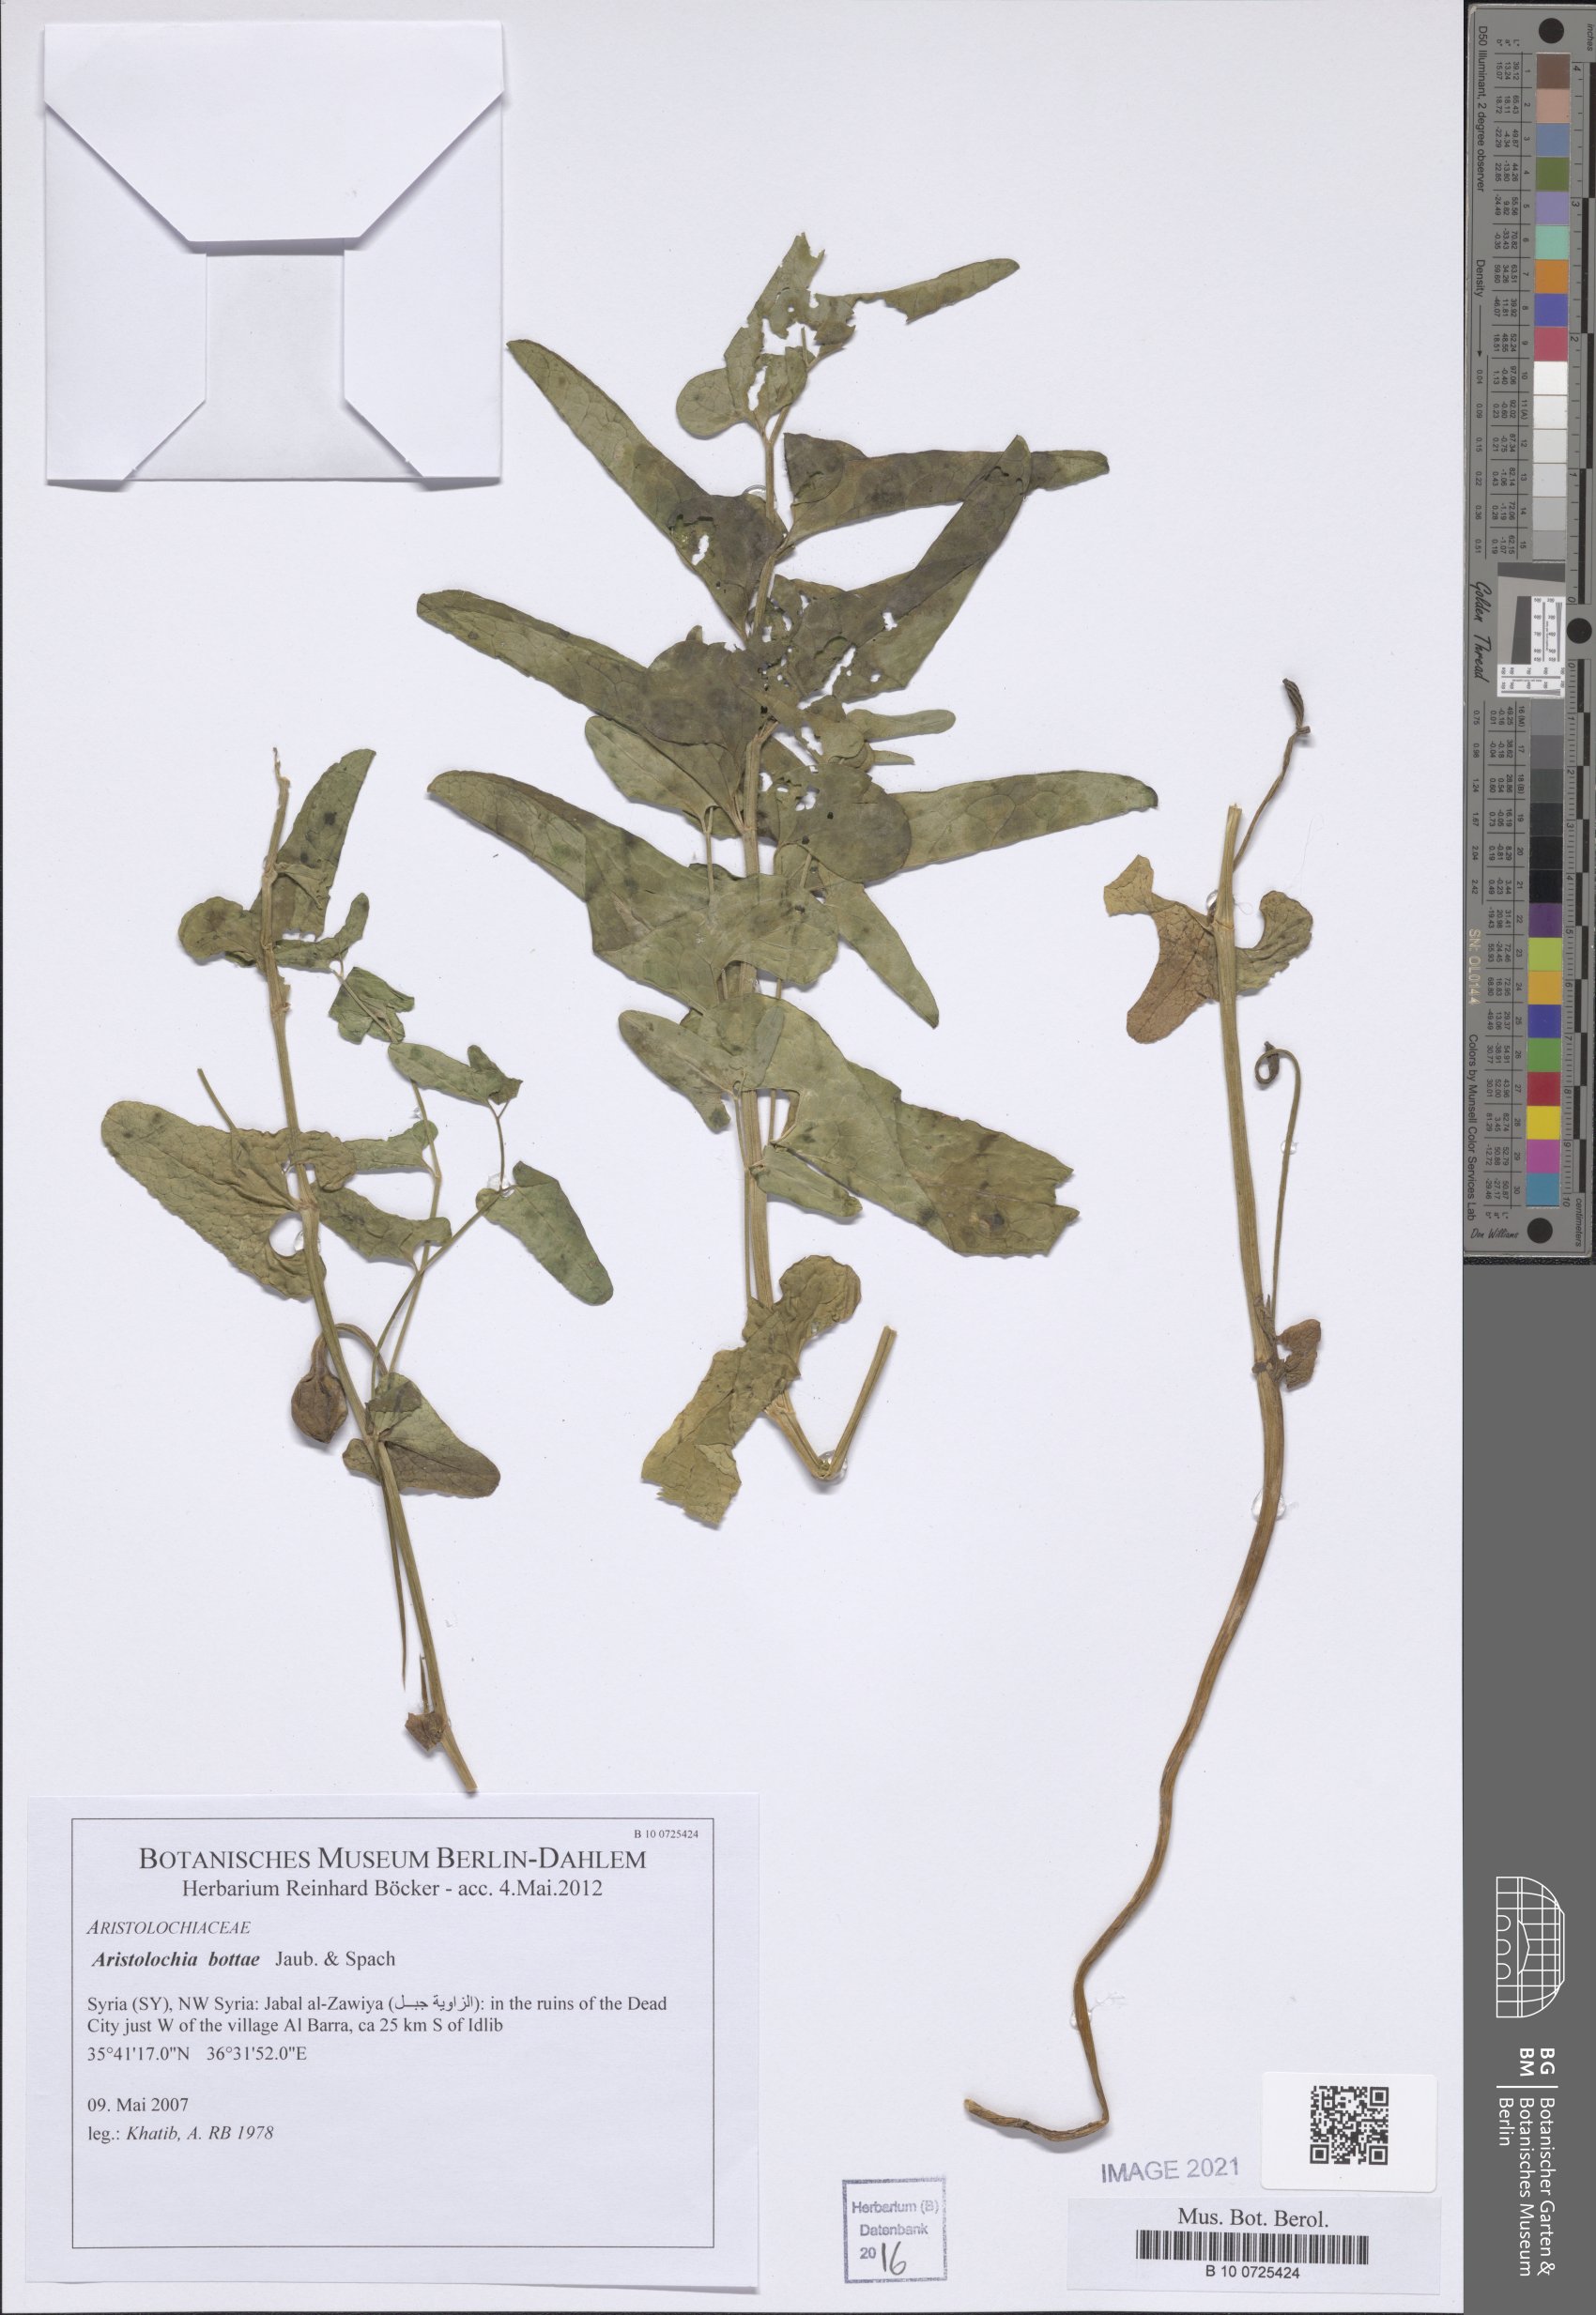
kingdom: Plantae
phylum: Tracheophyta
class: Magnoliopsida
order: Piperales
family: Aristolochiaceae
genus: Aristolochia
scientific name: Aristolochia bottae
